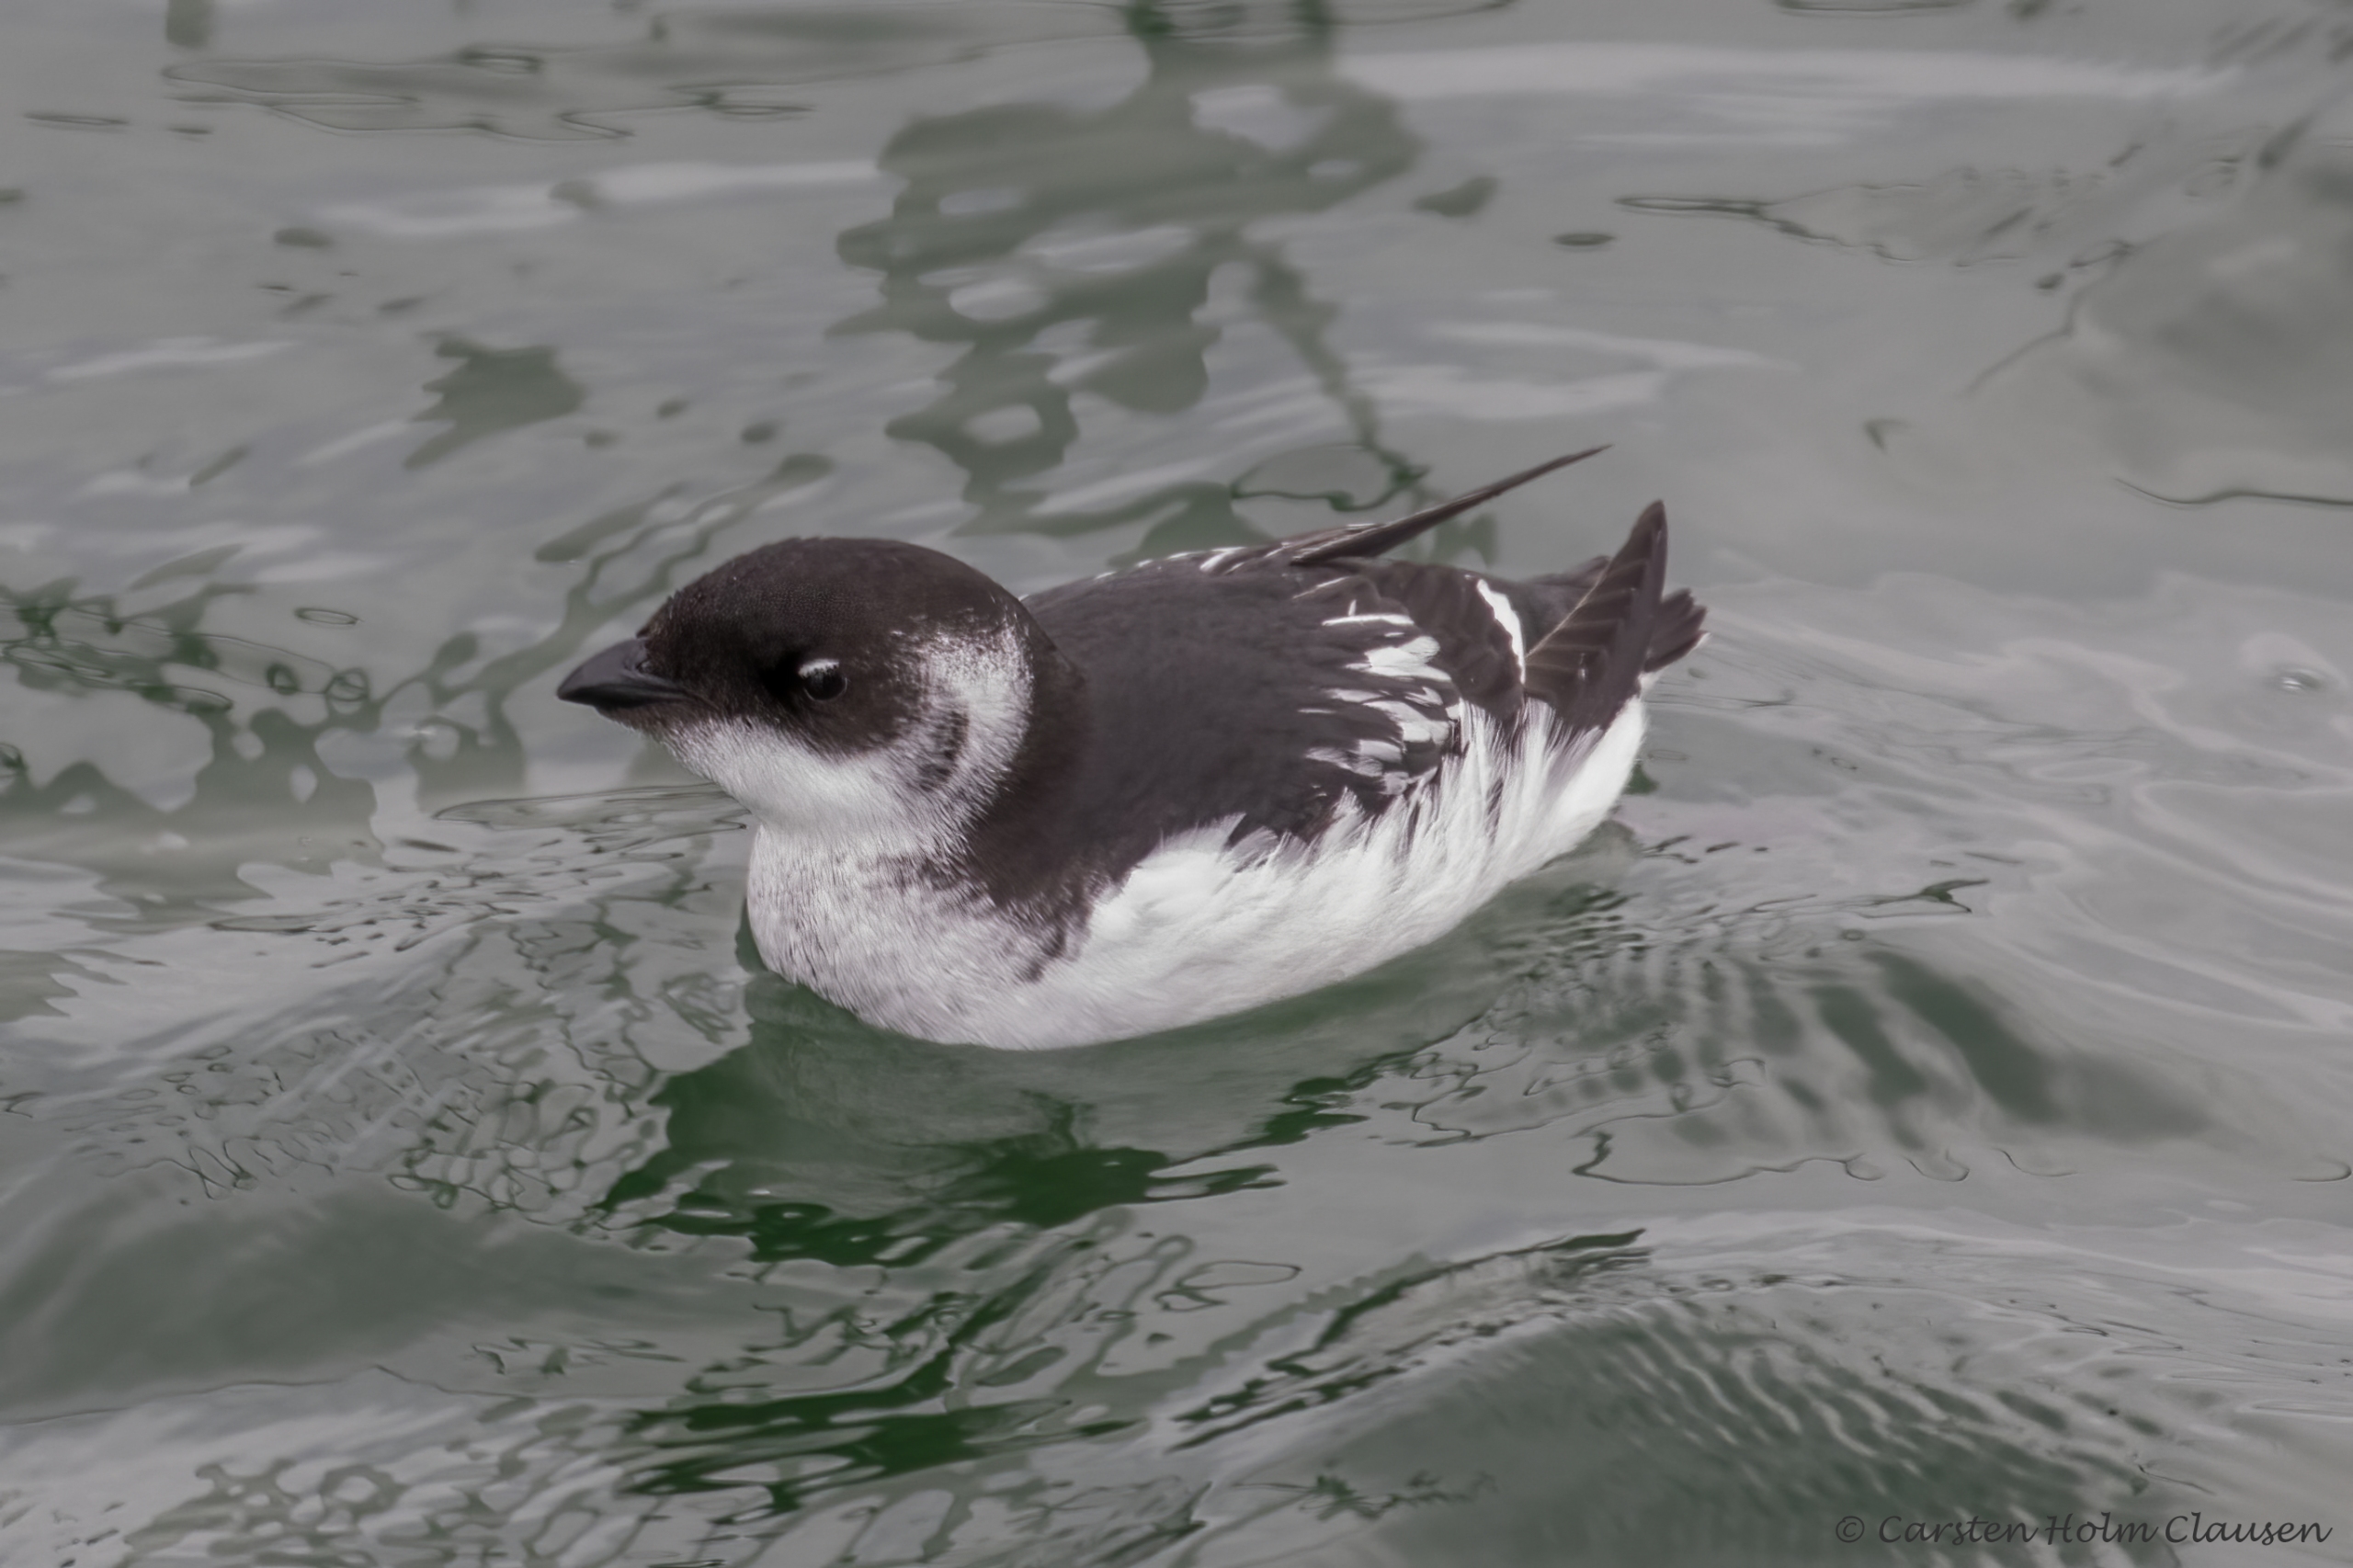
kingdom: Animalia
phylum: Chordata
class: Aves
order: Charadriiformes
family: Alcidae
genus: Alle
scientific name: Alle alle
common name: Søkonge
